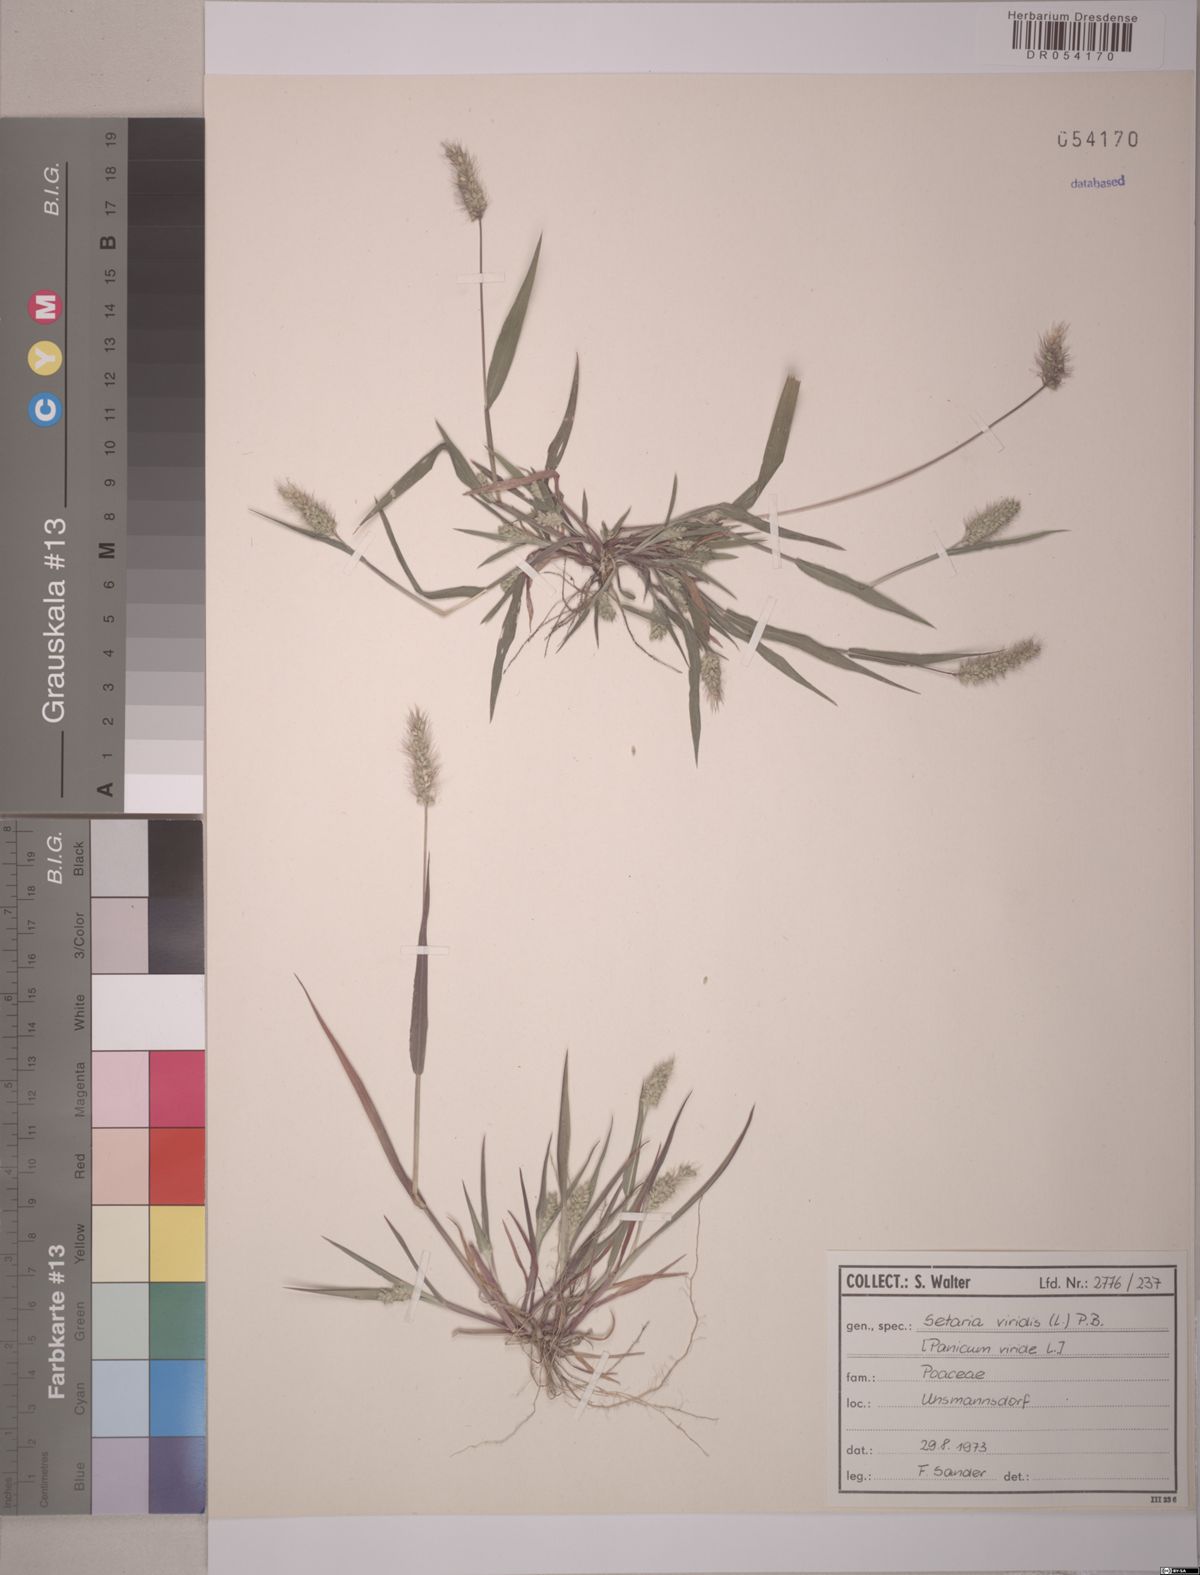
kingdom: Plantae
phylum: Tracheophyta
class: Liliopsida
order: Poales
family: Poaceae
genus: Setaria
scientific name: Setaria viridis
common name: Green bristlegrass
